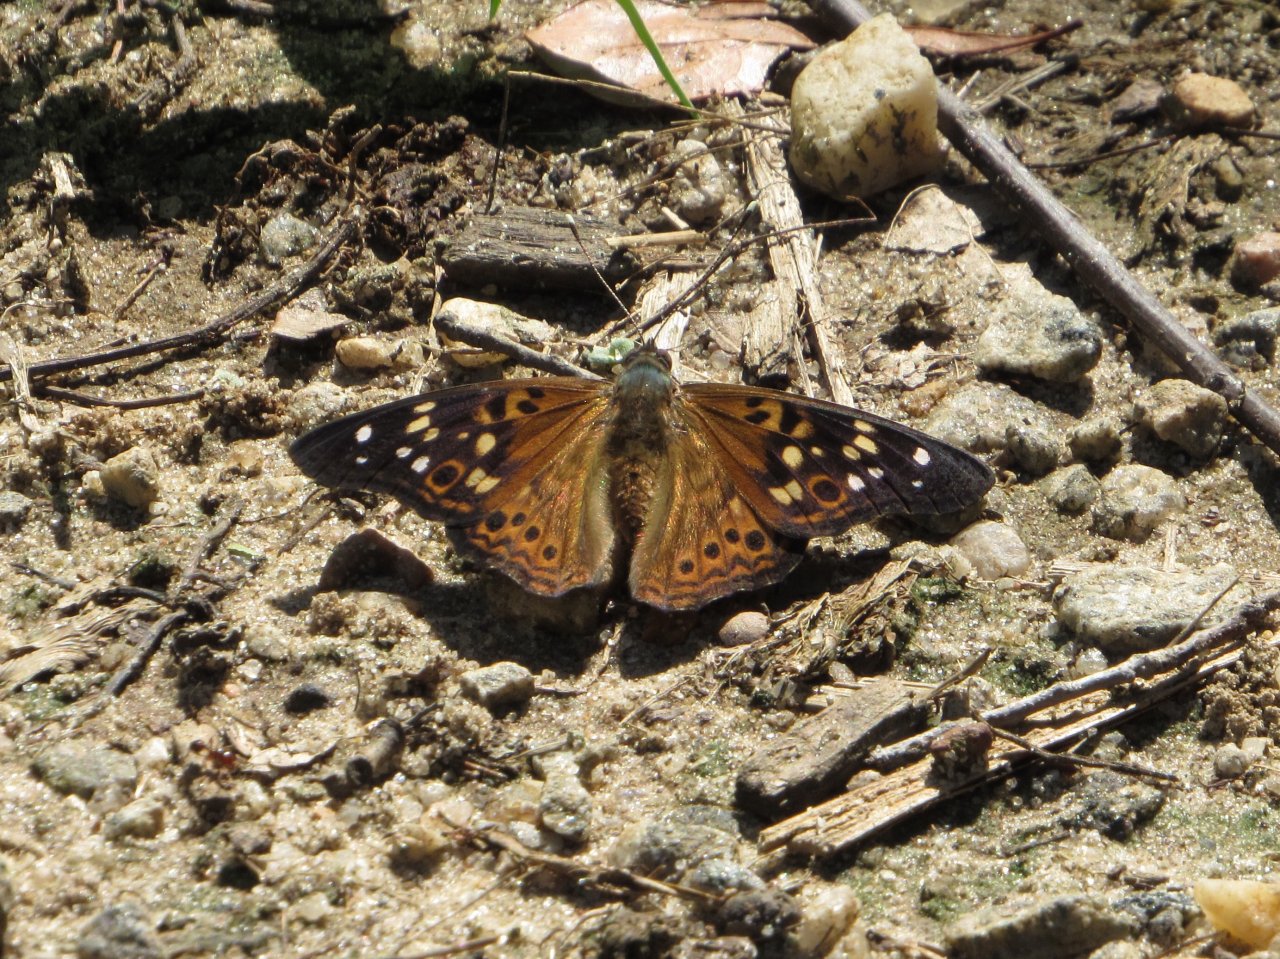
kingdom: Animalia
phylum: Arthropoda
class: Insecta
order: Lepidoptera
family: Nymphalidae
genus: Asterocampa
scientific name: Asterocampa celtis
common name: Hackberry Emperor
